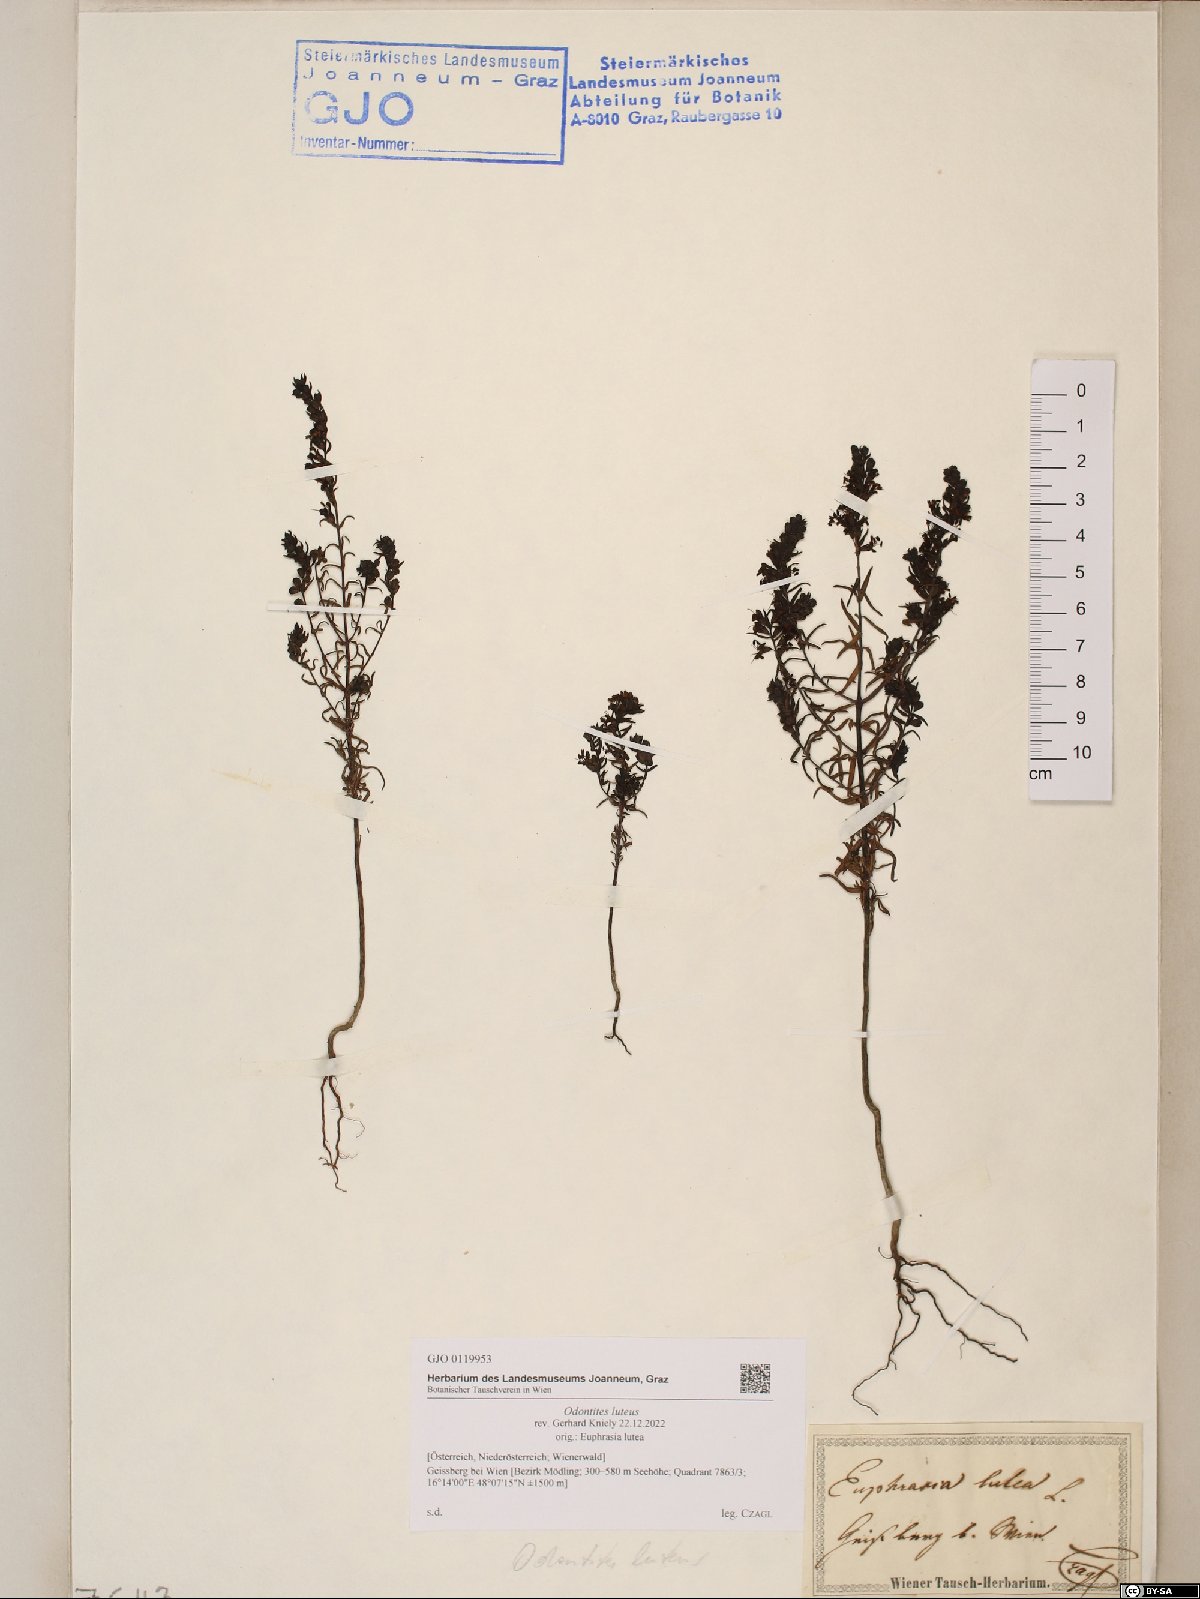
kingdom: Plantae
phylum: Tracheophyta
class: Magnoliopsida
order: Lamiales
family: Orobanchaceae
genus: Odontites
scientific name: Odontites luteus
